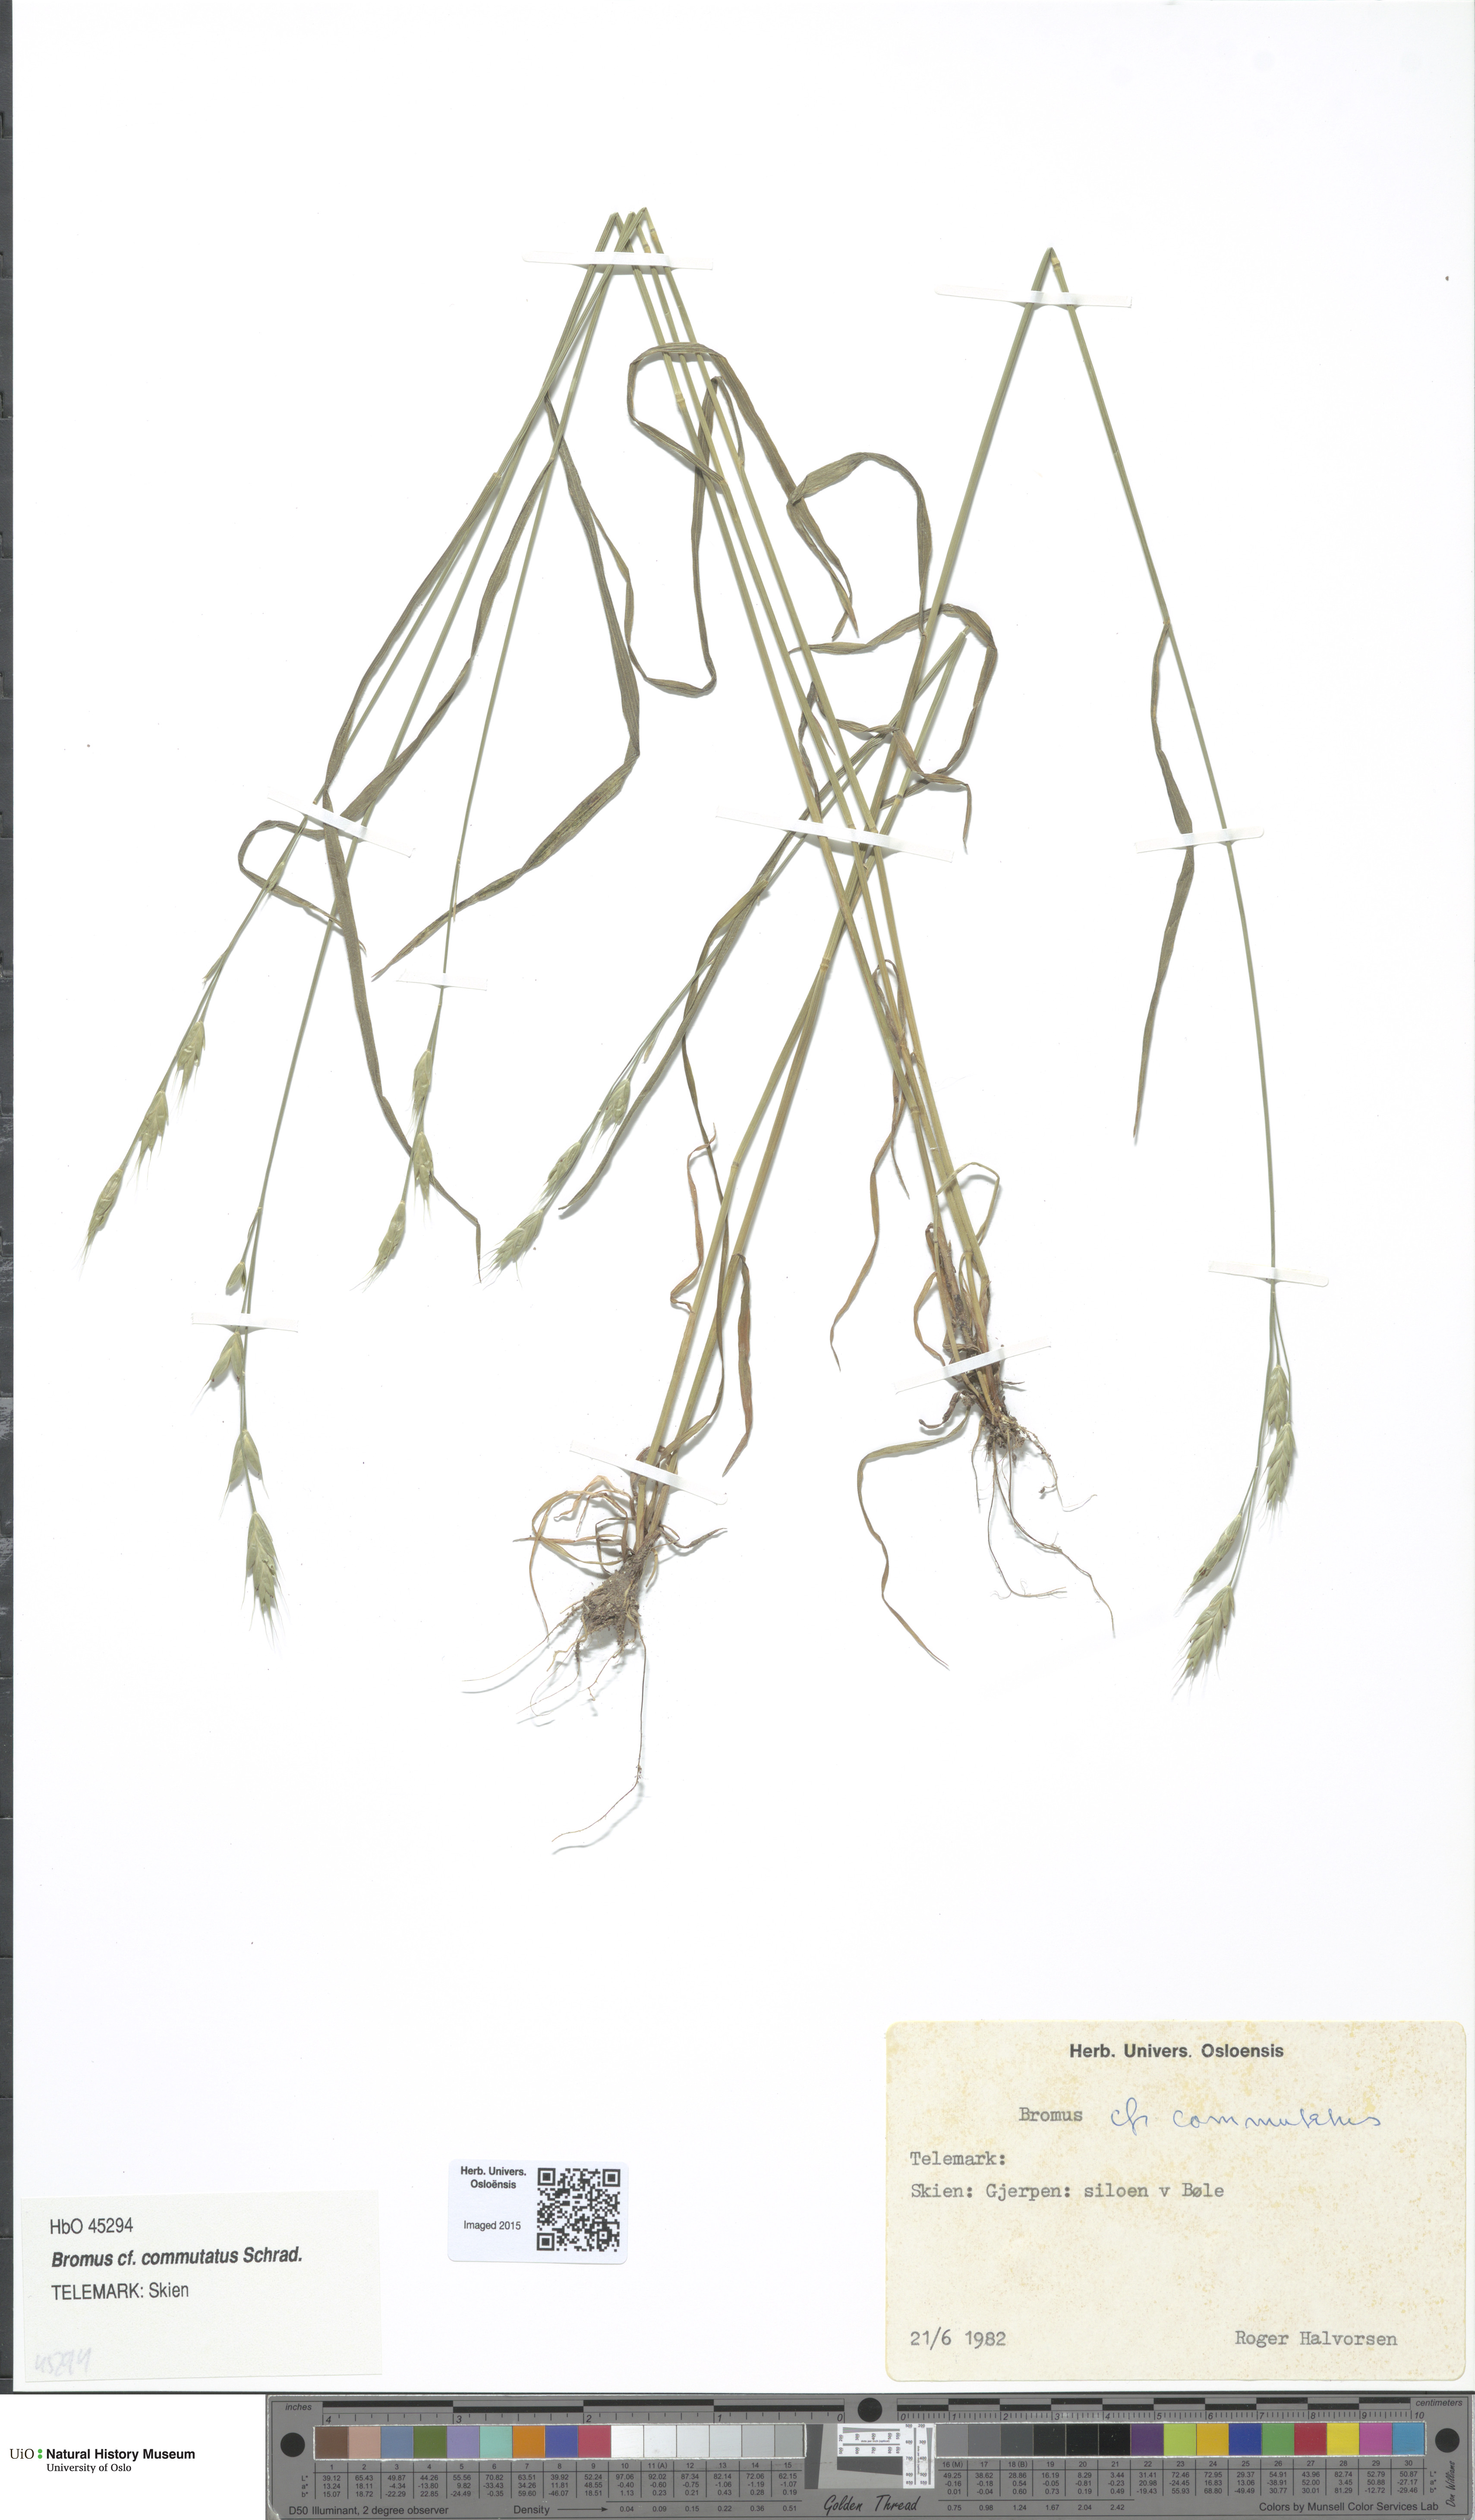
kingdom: Plantae
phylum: Tracheophyta
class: Liliopsida
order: Poales
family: Poaceae
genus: Bromus
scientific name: Bromus commutatus
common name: Meadow brome
